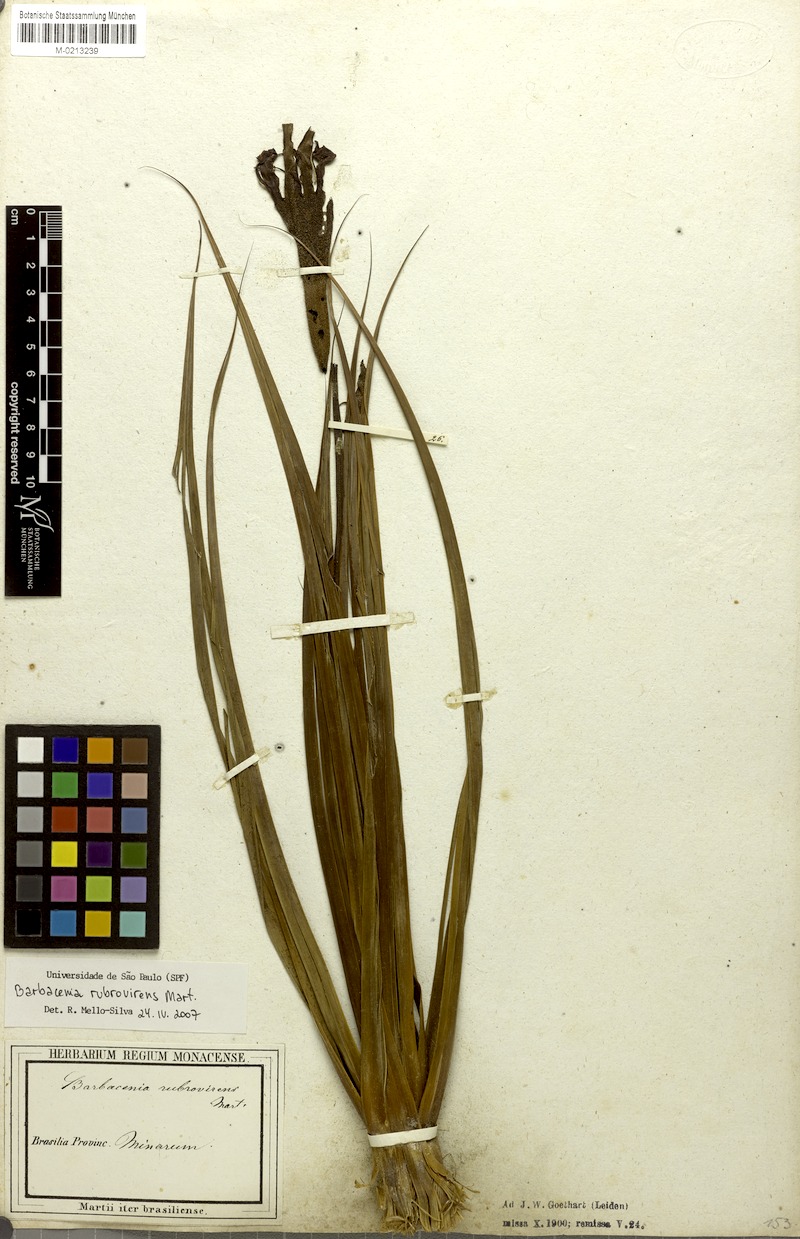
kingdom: Plantae
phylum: Tracheophyta
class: Liliopsida
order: Pandanales
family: Velloziaceae
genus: Barbacenia
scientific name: Barbacenia rubrovirens
